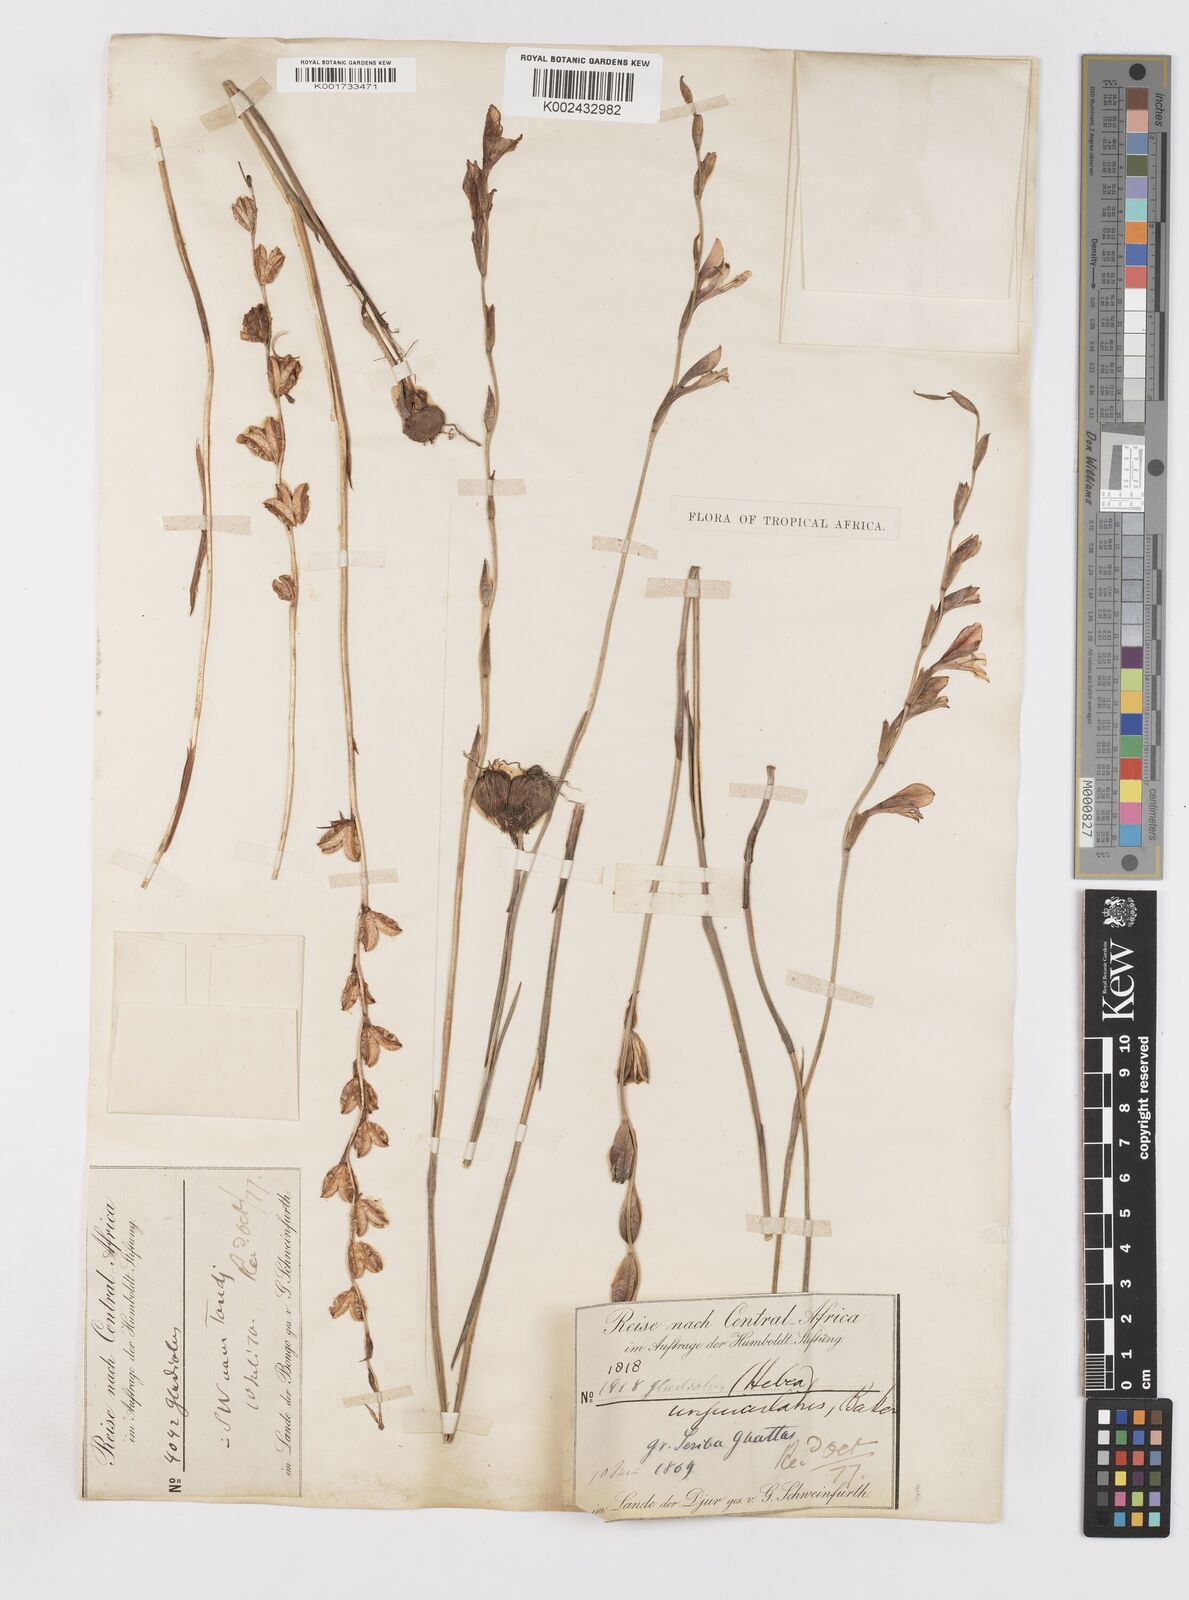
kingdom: Plantae
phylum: Tracheophyta
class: Liliopsida
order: Asparagales
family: Iridaceae
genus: Gladiolus
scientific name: Gladiolus unguiculatus
